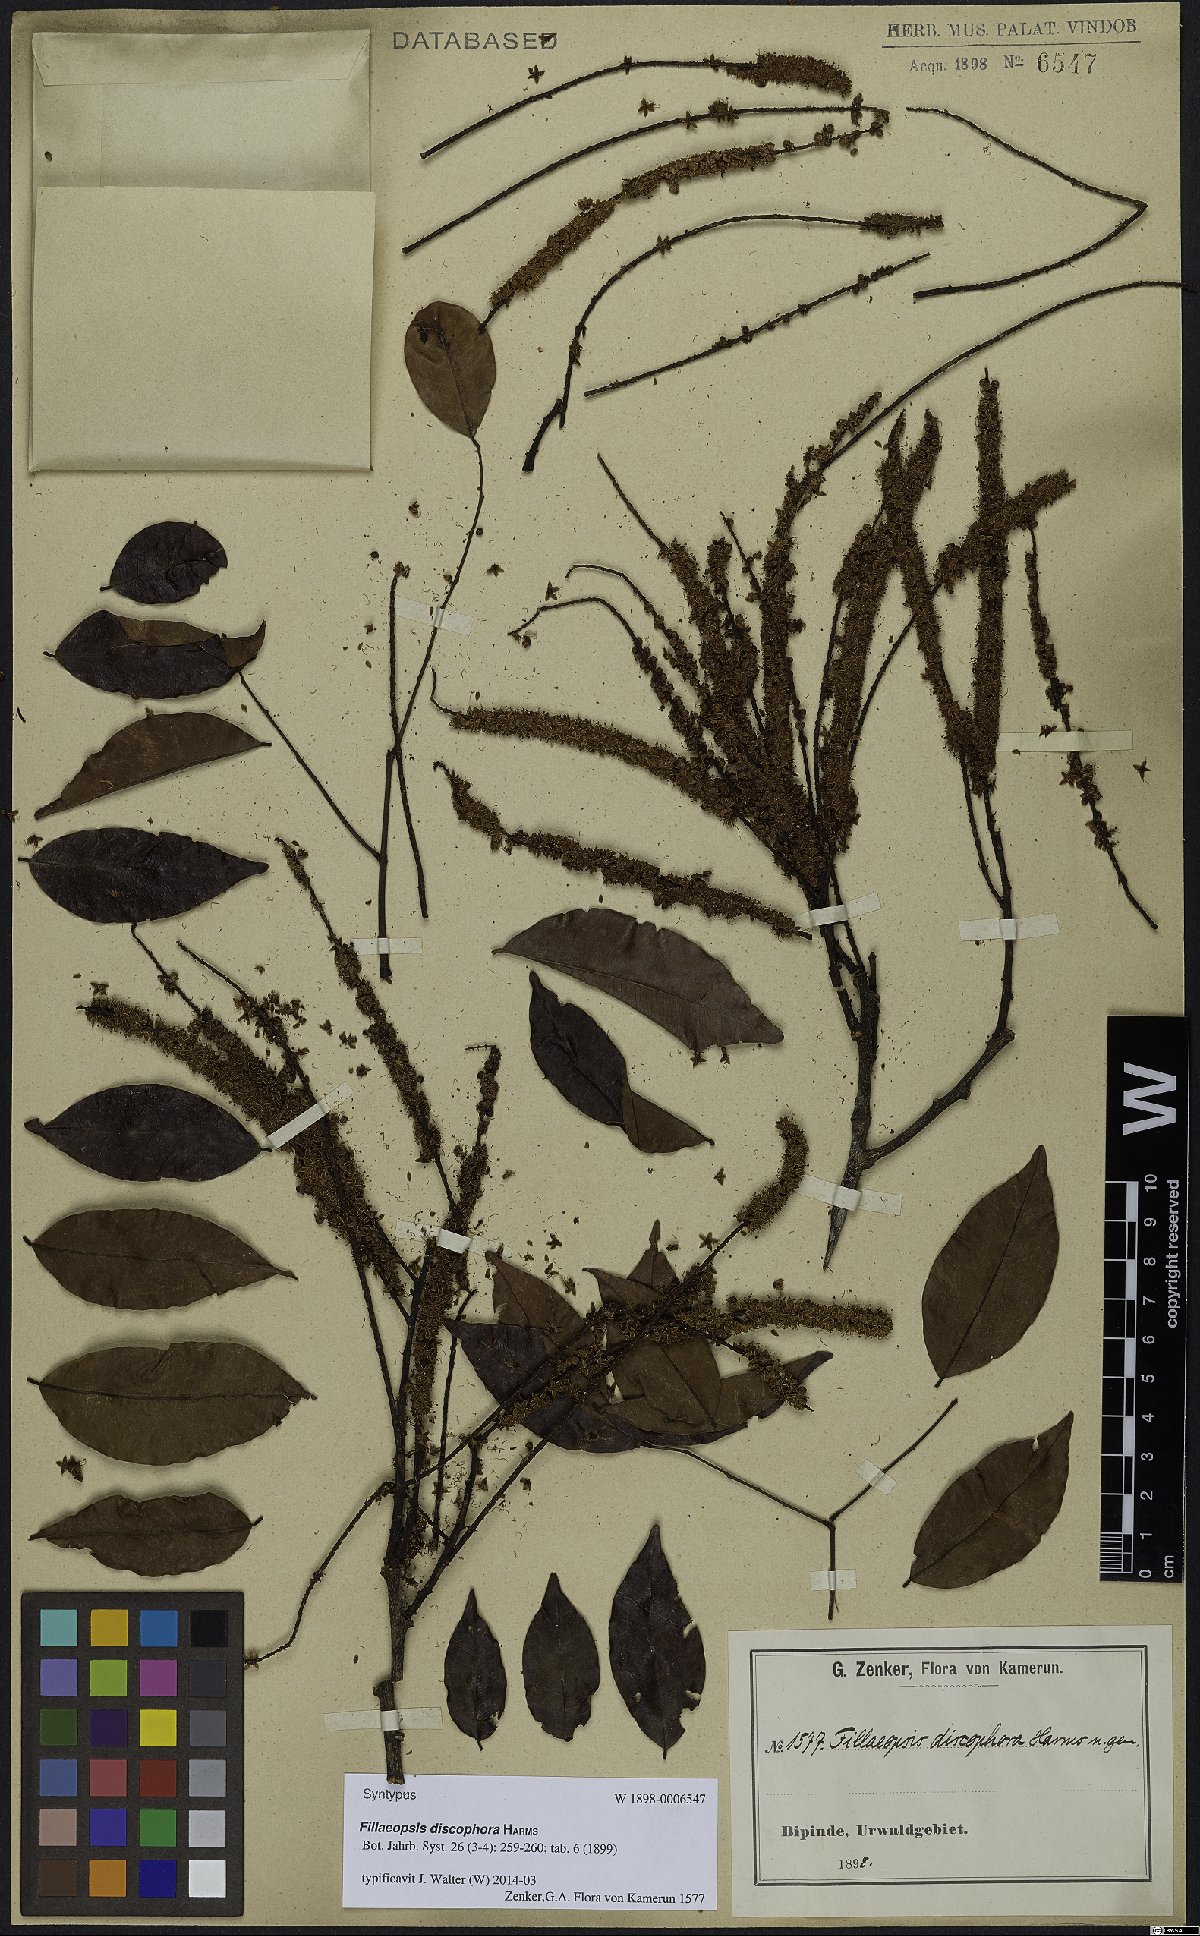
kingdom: Plantae
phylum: Tracheophyta
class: Magnoliopsida
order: Fabales
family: Fabaceae
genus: Fillaeopsis
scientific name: Fillaeopsis discophora
